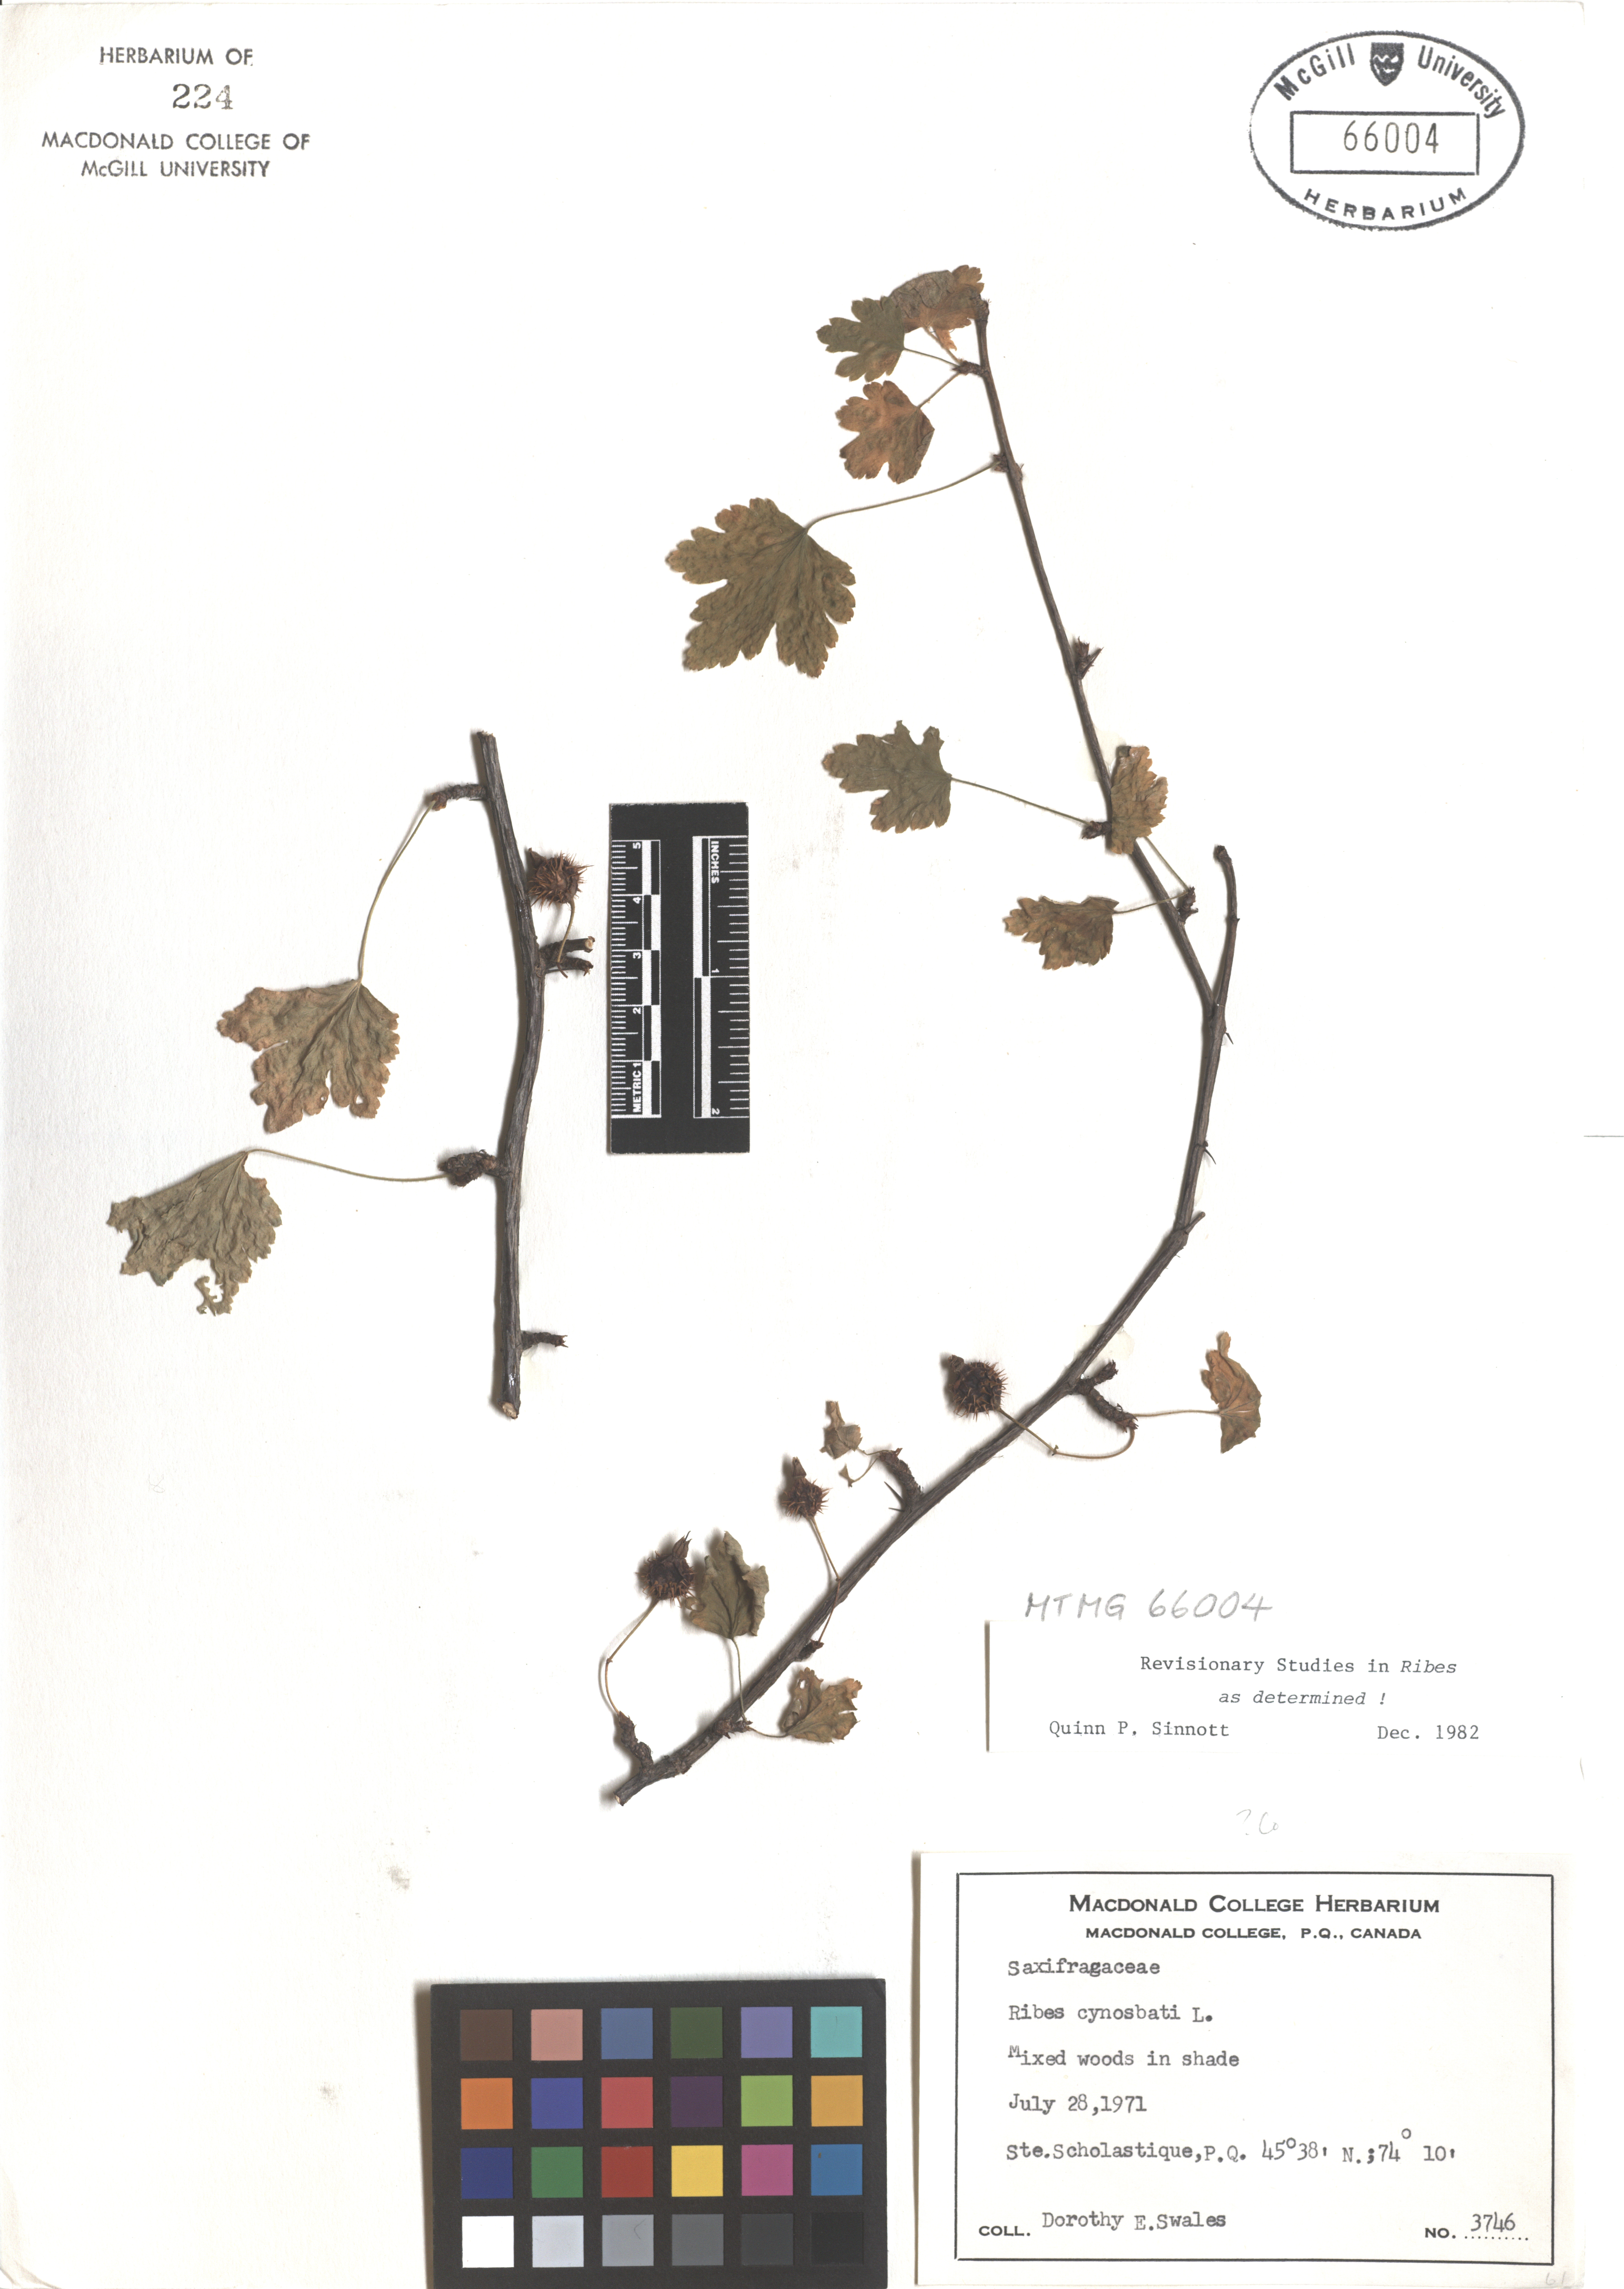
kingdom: Plantae
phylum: Tracheophyta
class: Magnoliopsida
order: Saxifragales
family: Grossulariaceae
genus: Ribes
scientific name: Ribes cynosbati
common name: American gooseberry
